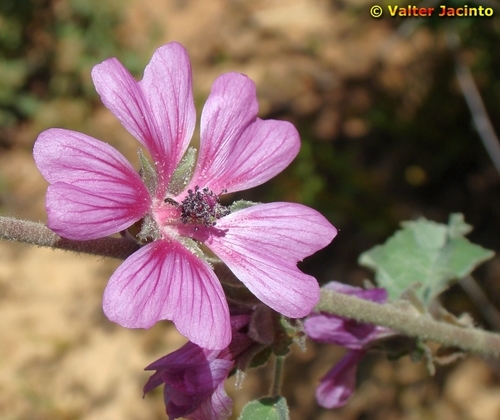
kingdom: Plantae
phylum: Tracheophyta
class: Magnoliopsida
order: Malvales
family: Malvaceae
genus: Malva
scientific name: Malva olbia
